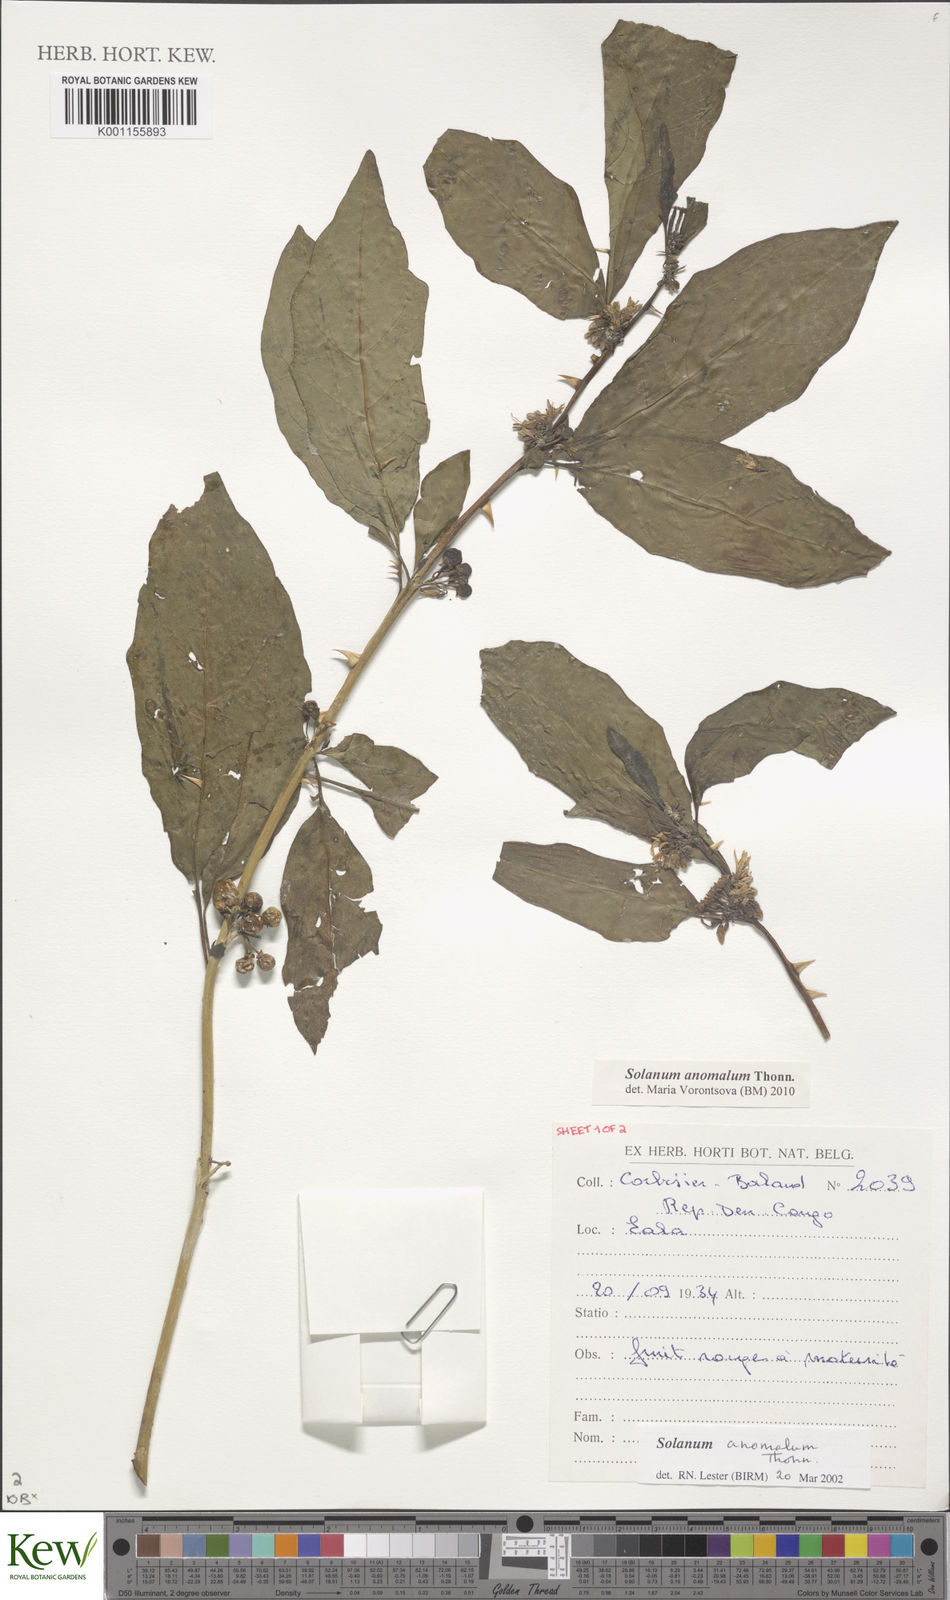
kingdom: Plantae
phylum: Tracheophyta
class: Magnoliopsida
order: Solanales
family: Solanaceae
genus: Solanum
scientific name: Solanum anomalum
